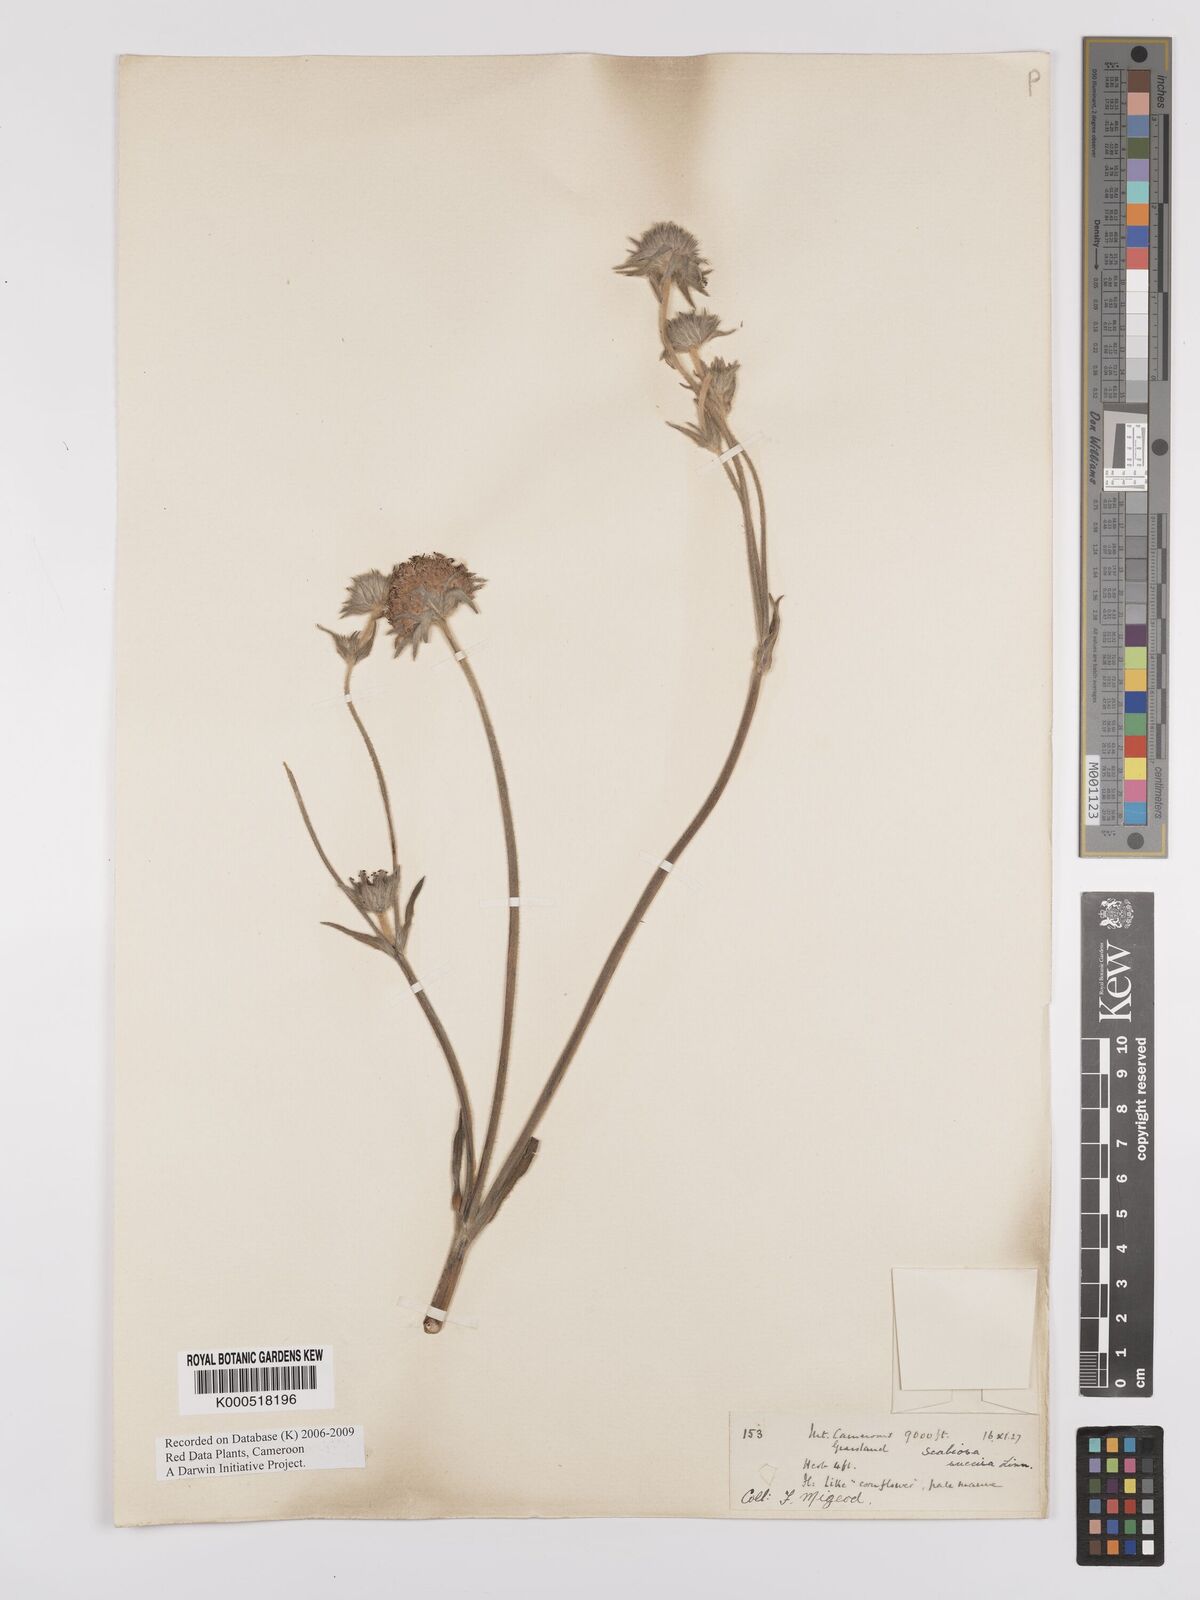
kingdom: Plantae
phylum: Tracheophyta
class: Magnoliopsida
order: Dipsacales
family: Caprifoliaceae
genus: Succisa
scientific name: Succisa trichotocephala
